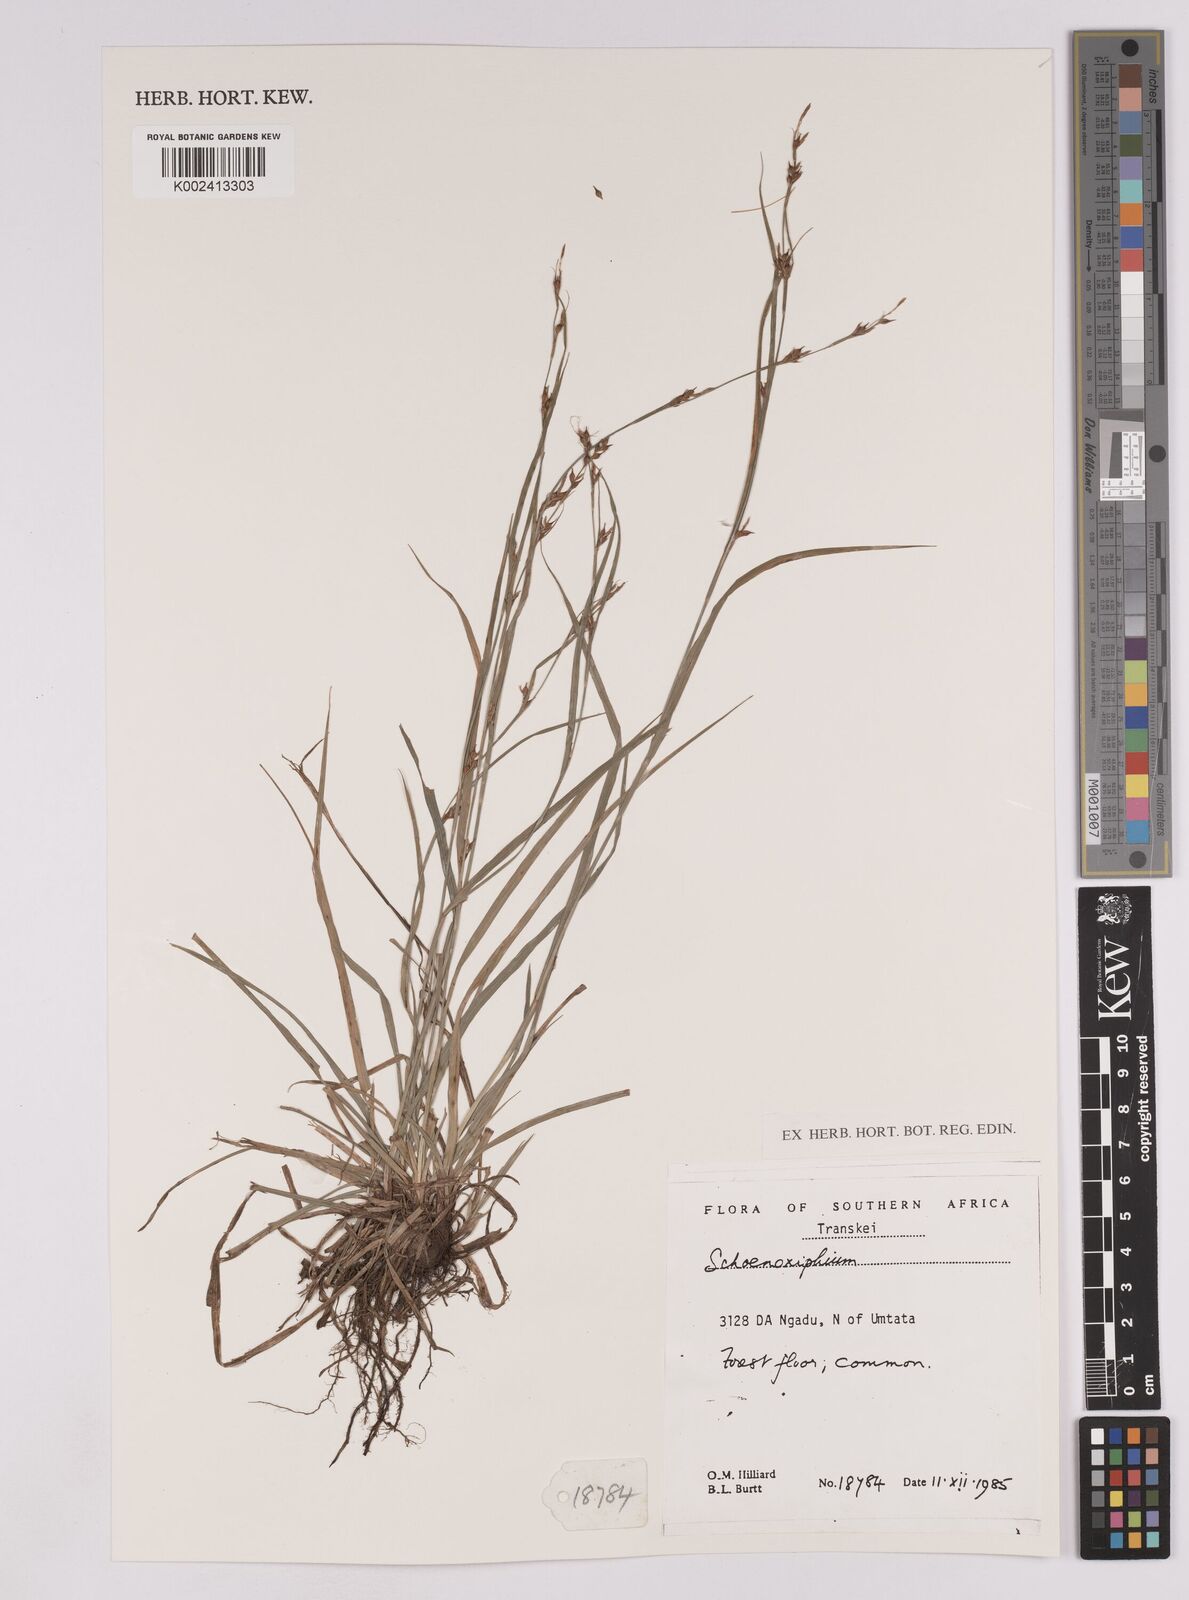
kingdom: Plantae
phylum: Tracheophyta
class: Liliopsida
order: Poales
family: Cyperaceae
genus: Carex
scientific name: Carex
